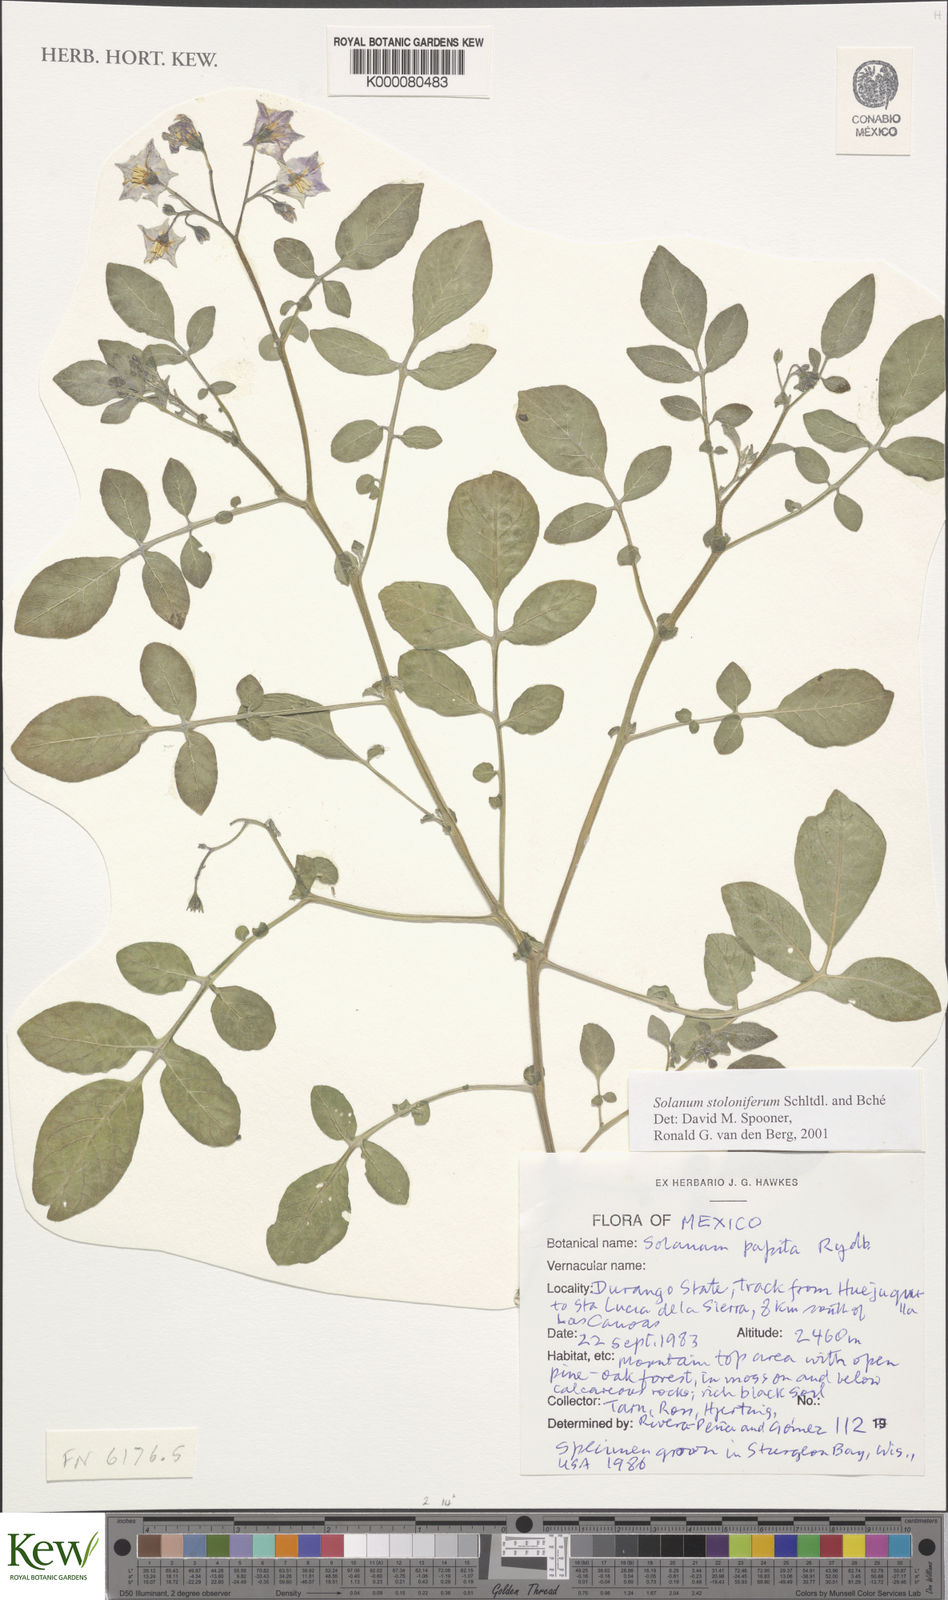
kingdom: Plantae
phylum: Tracheophyta
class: Magnoliopsida
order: Solanales
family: Solanaceae
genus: Solanum
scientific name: Solanum stoloniferum
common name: Fendler's nighshade
